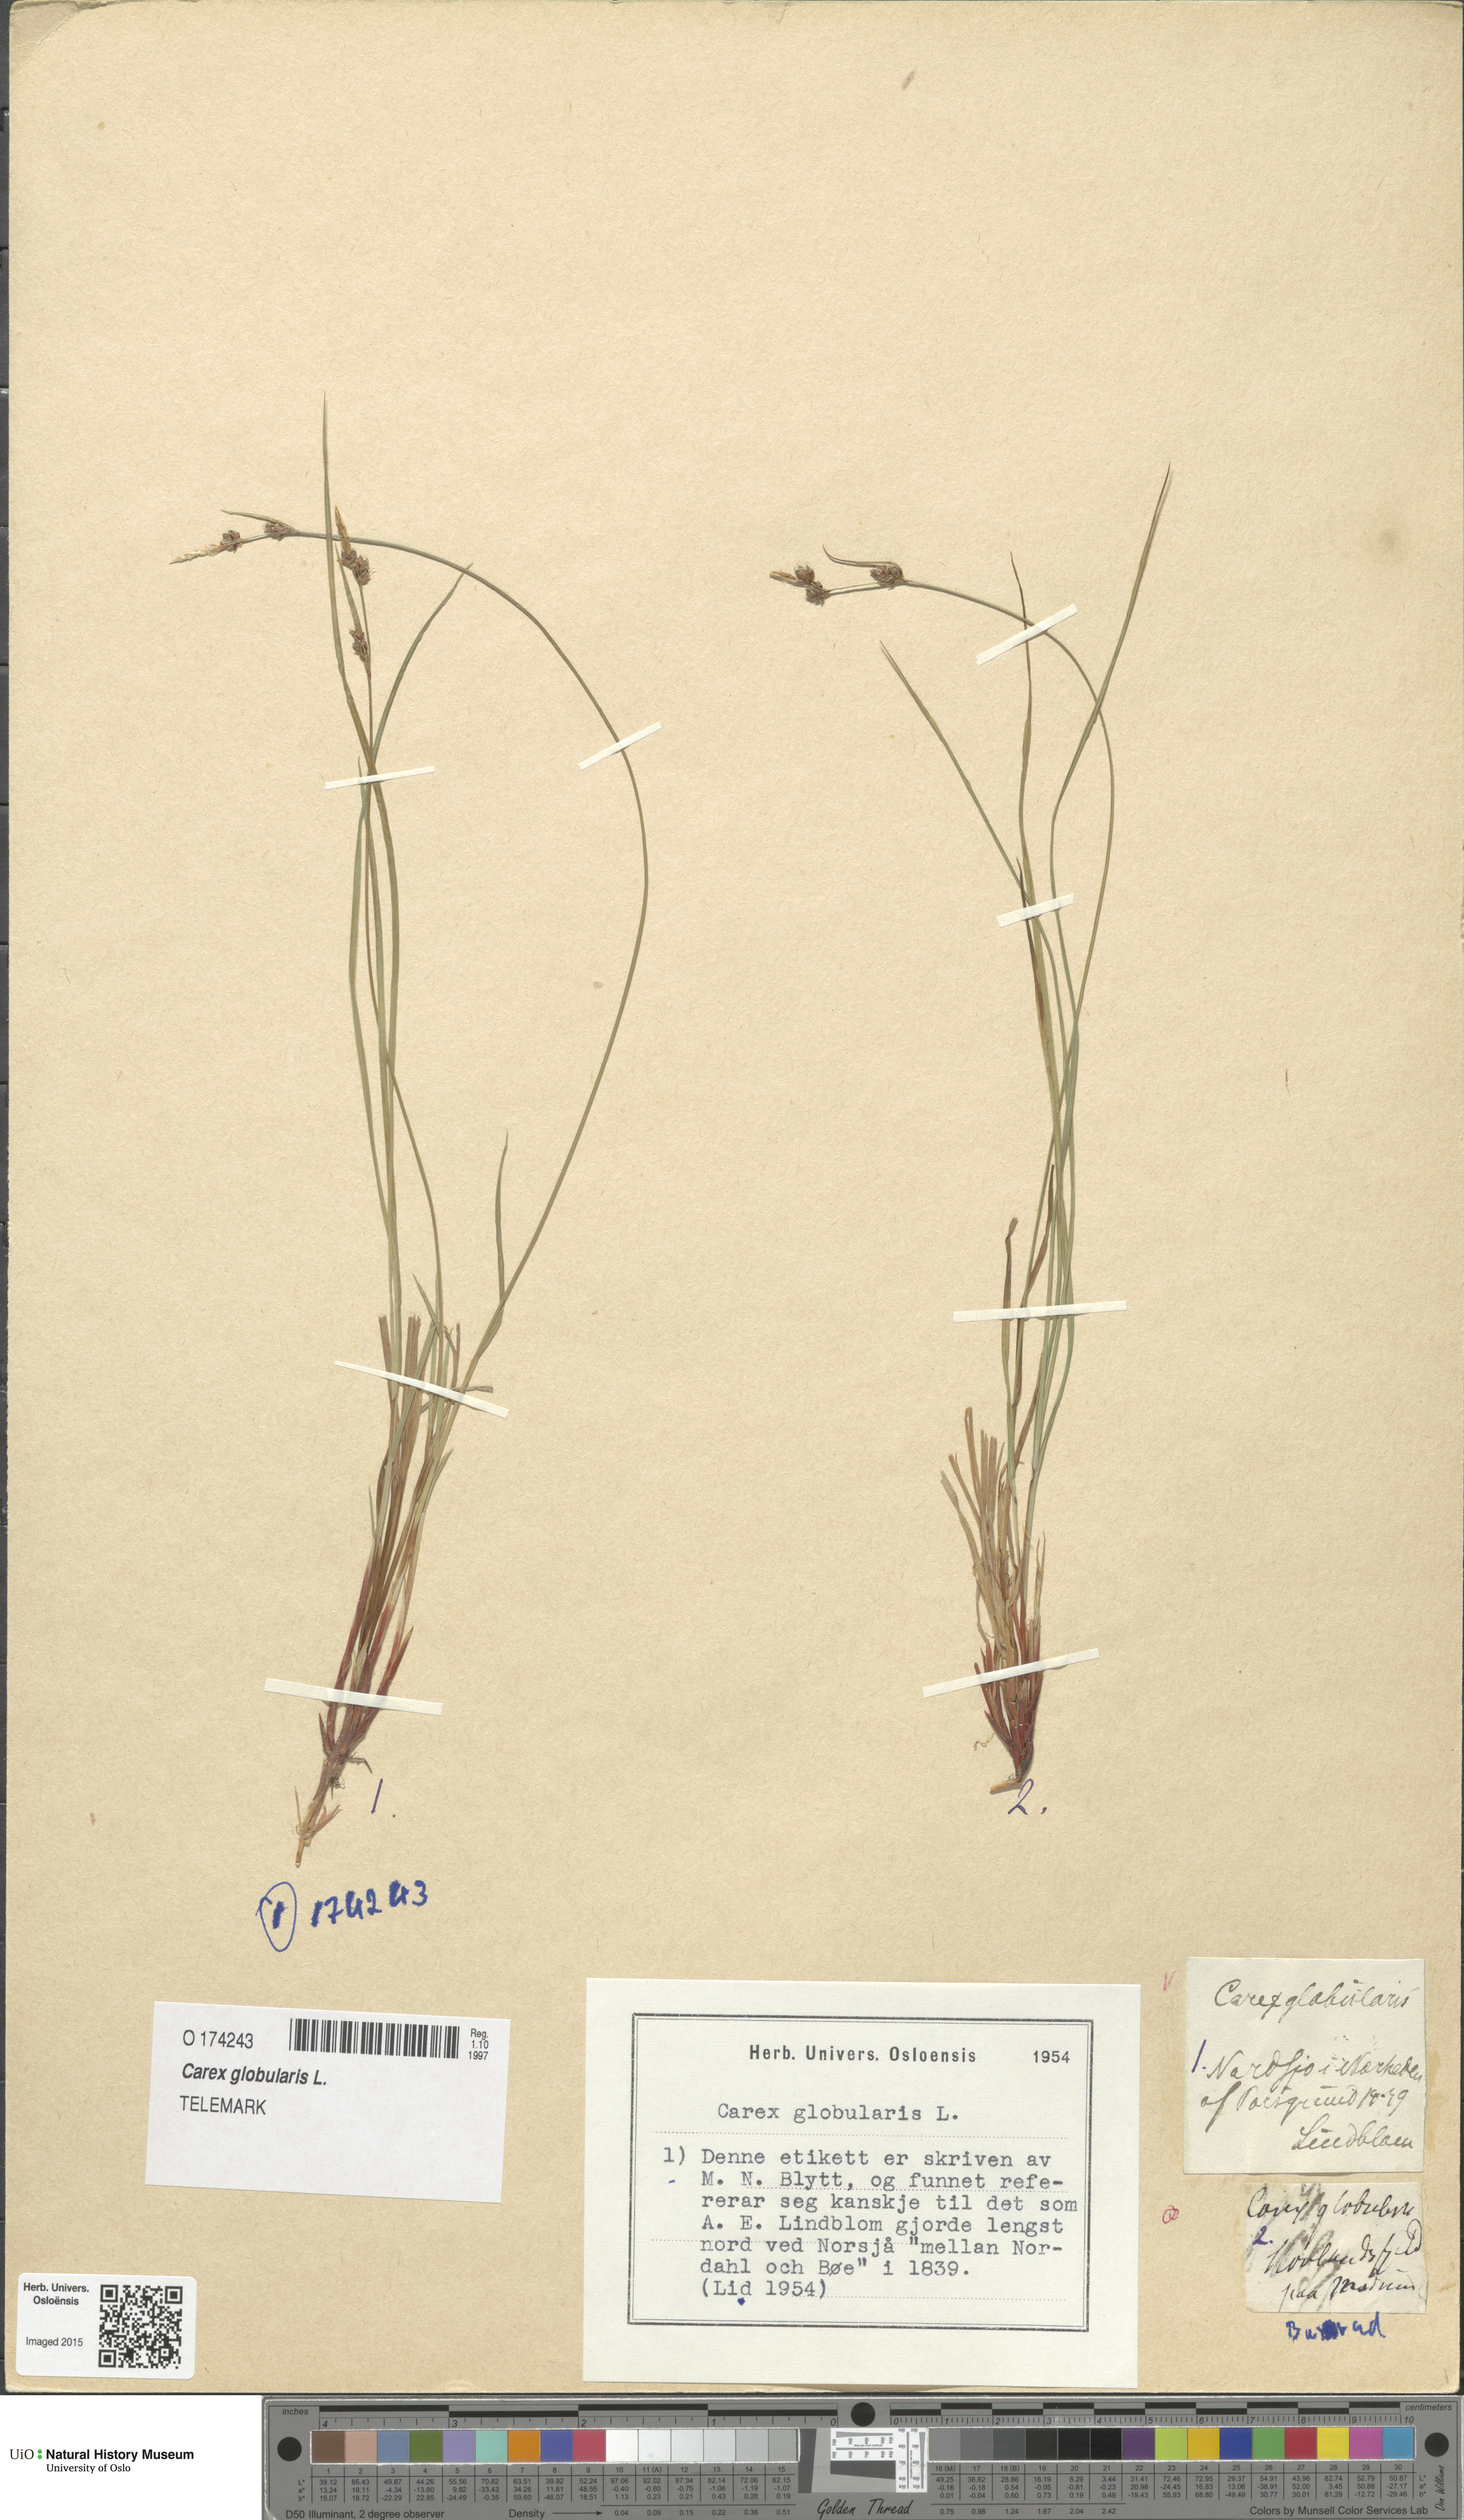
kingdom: Plantae
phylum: Tracheophyta
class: Liliopsida
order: Poales
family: Cyperaceae
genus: Carex
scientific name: Carex globularis
